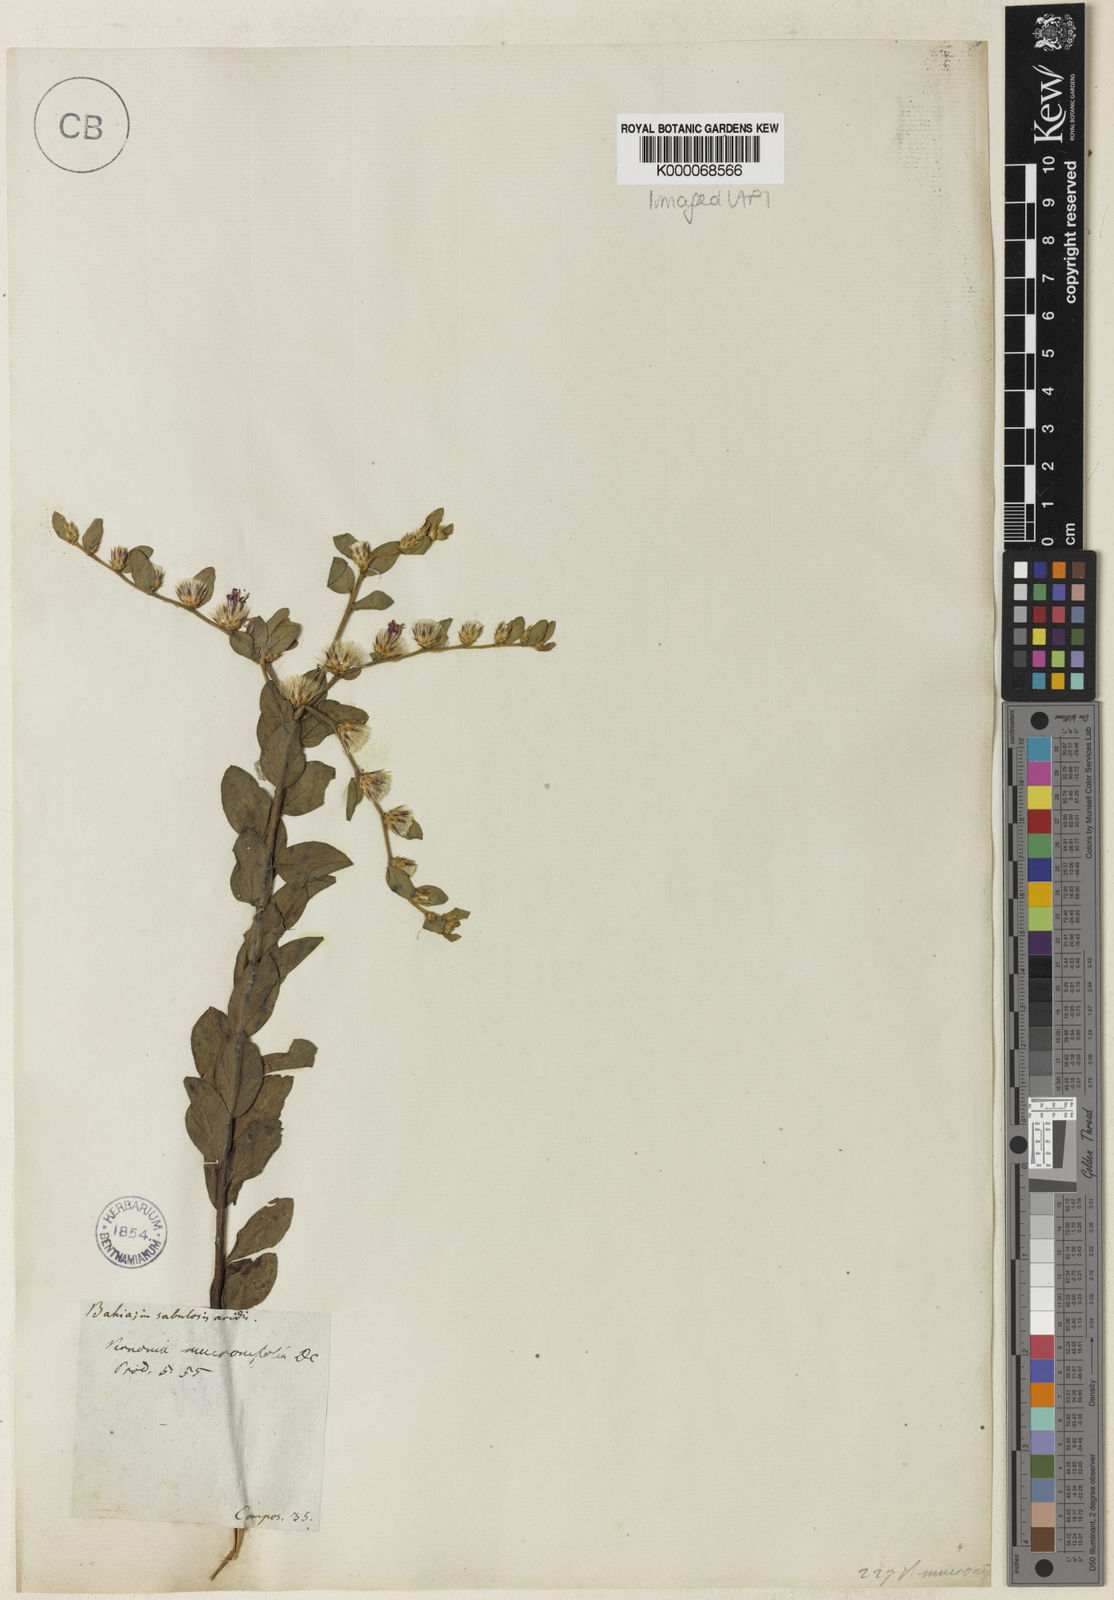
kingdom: Plantae
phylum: Tracheophyta
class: Magnoliopsida
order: Asterales
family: Asteraceae
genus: Lepidaploa
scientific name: Lepidaploa mucronifolia
